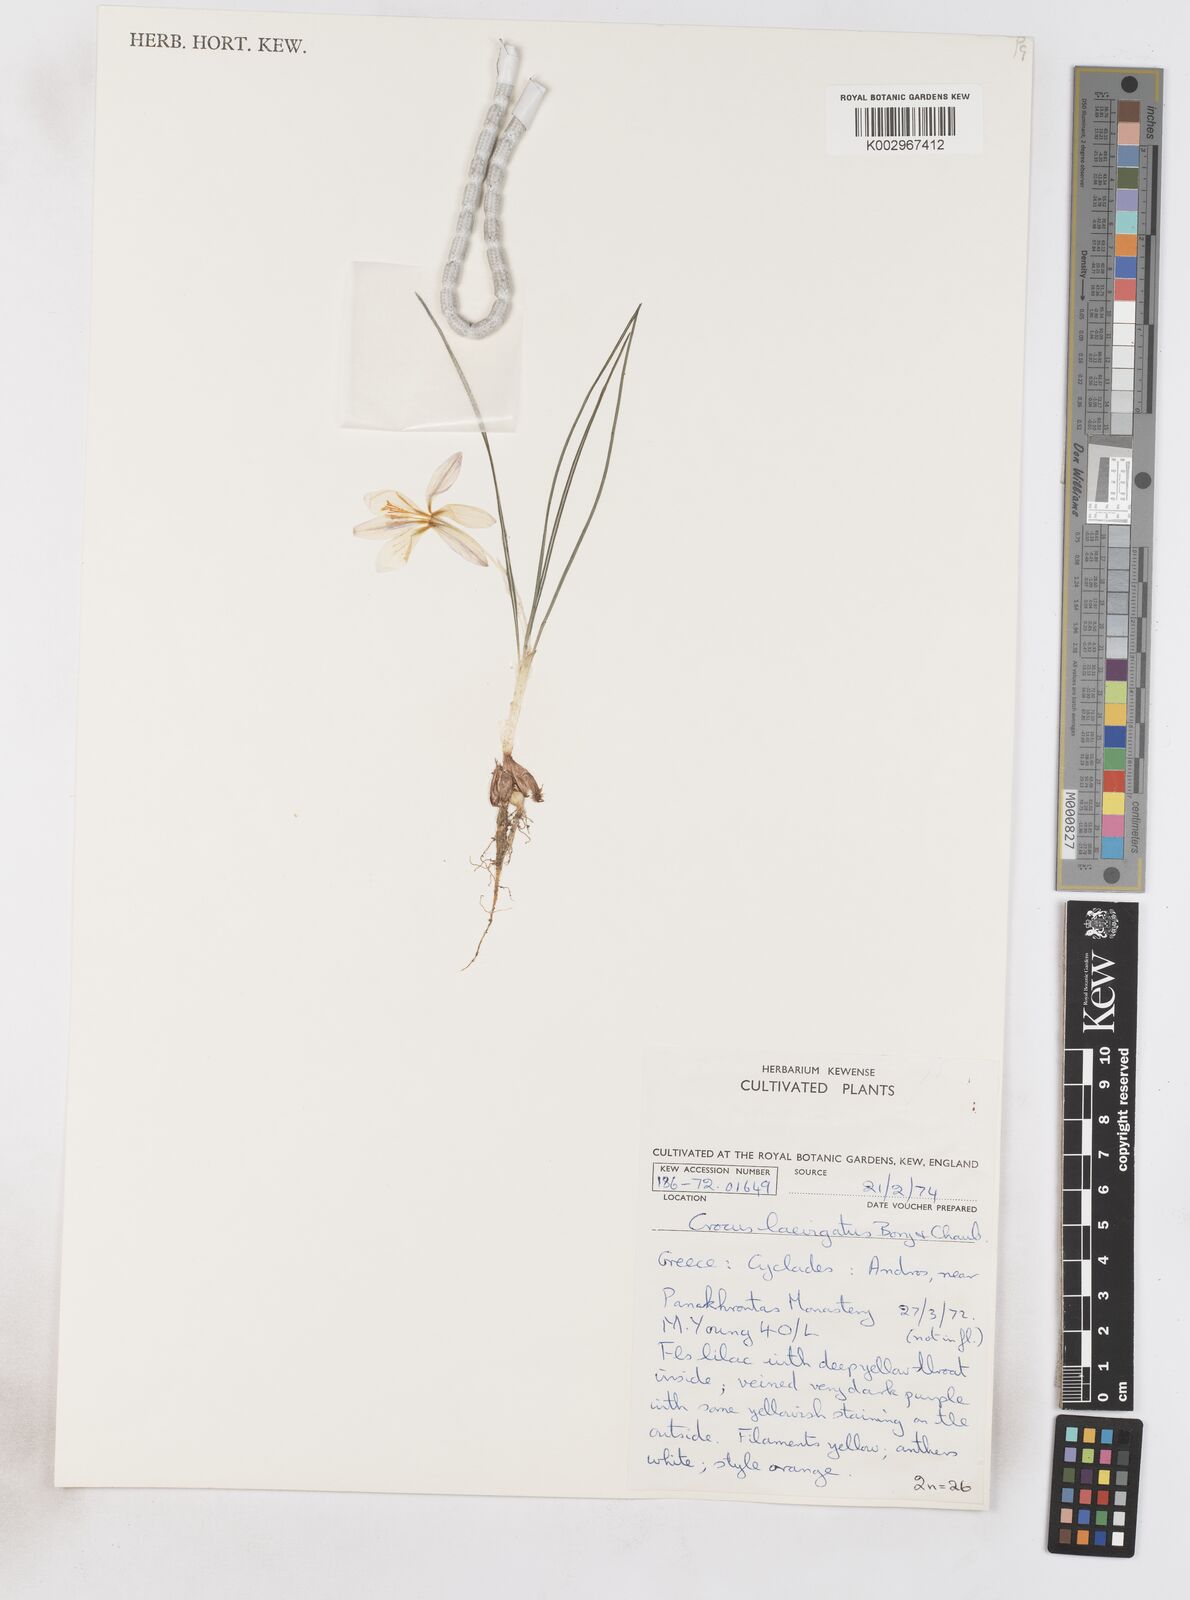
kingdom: Plantae
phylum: Tracheophyta
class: Liliopsida
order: Asparagales
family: Iridaceae
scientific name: Iridaceae
